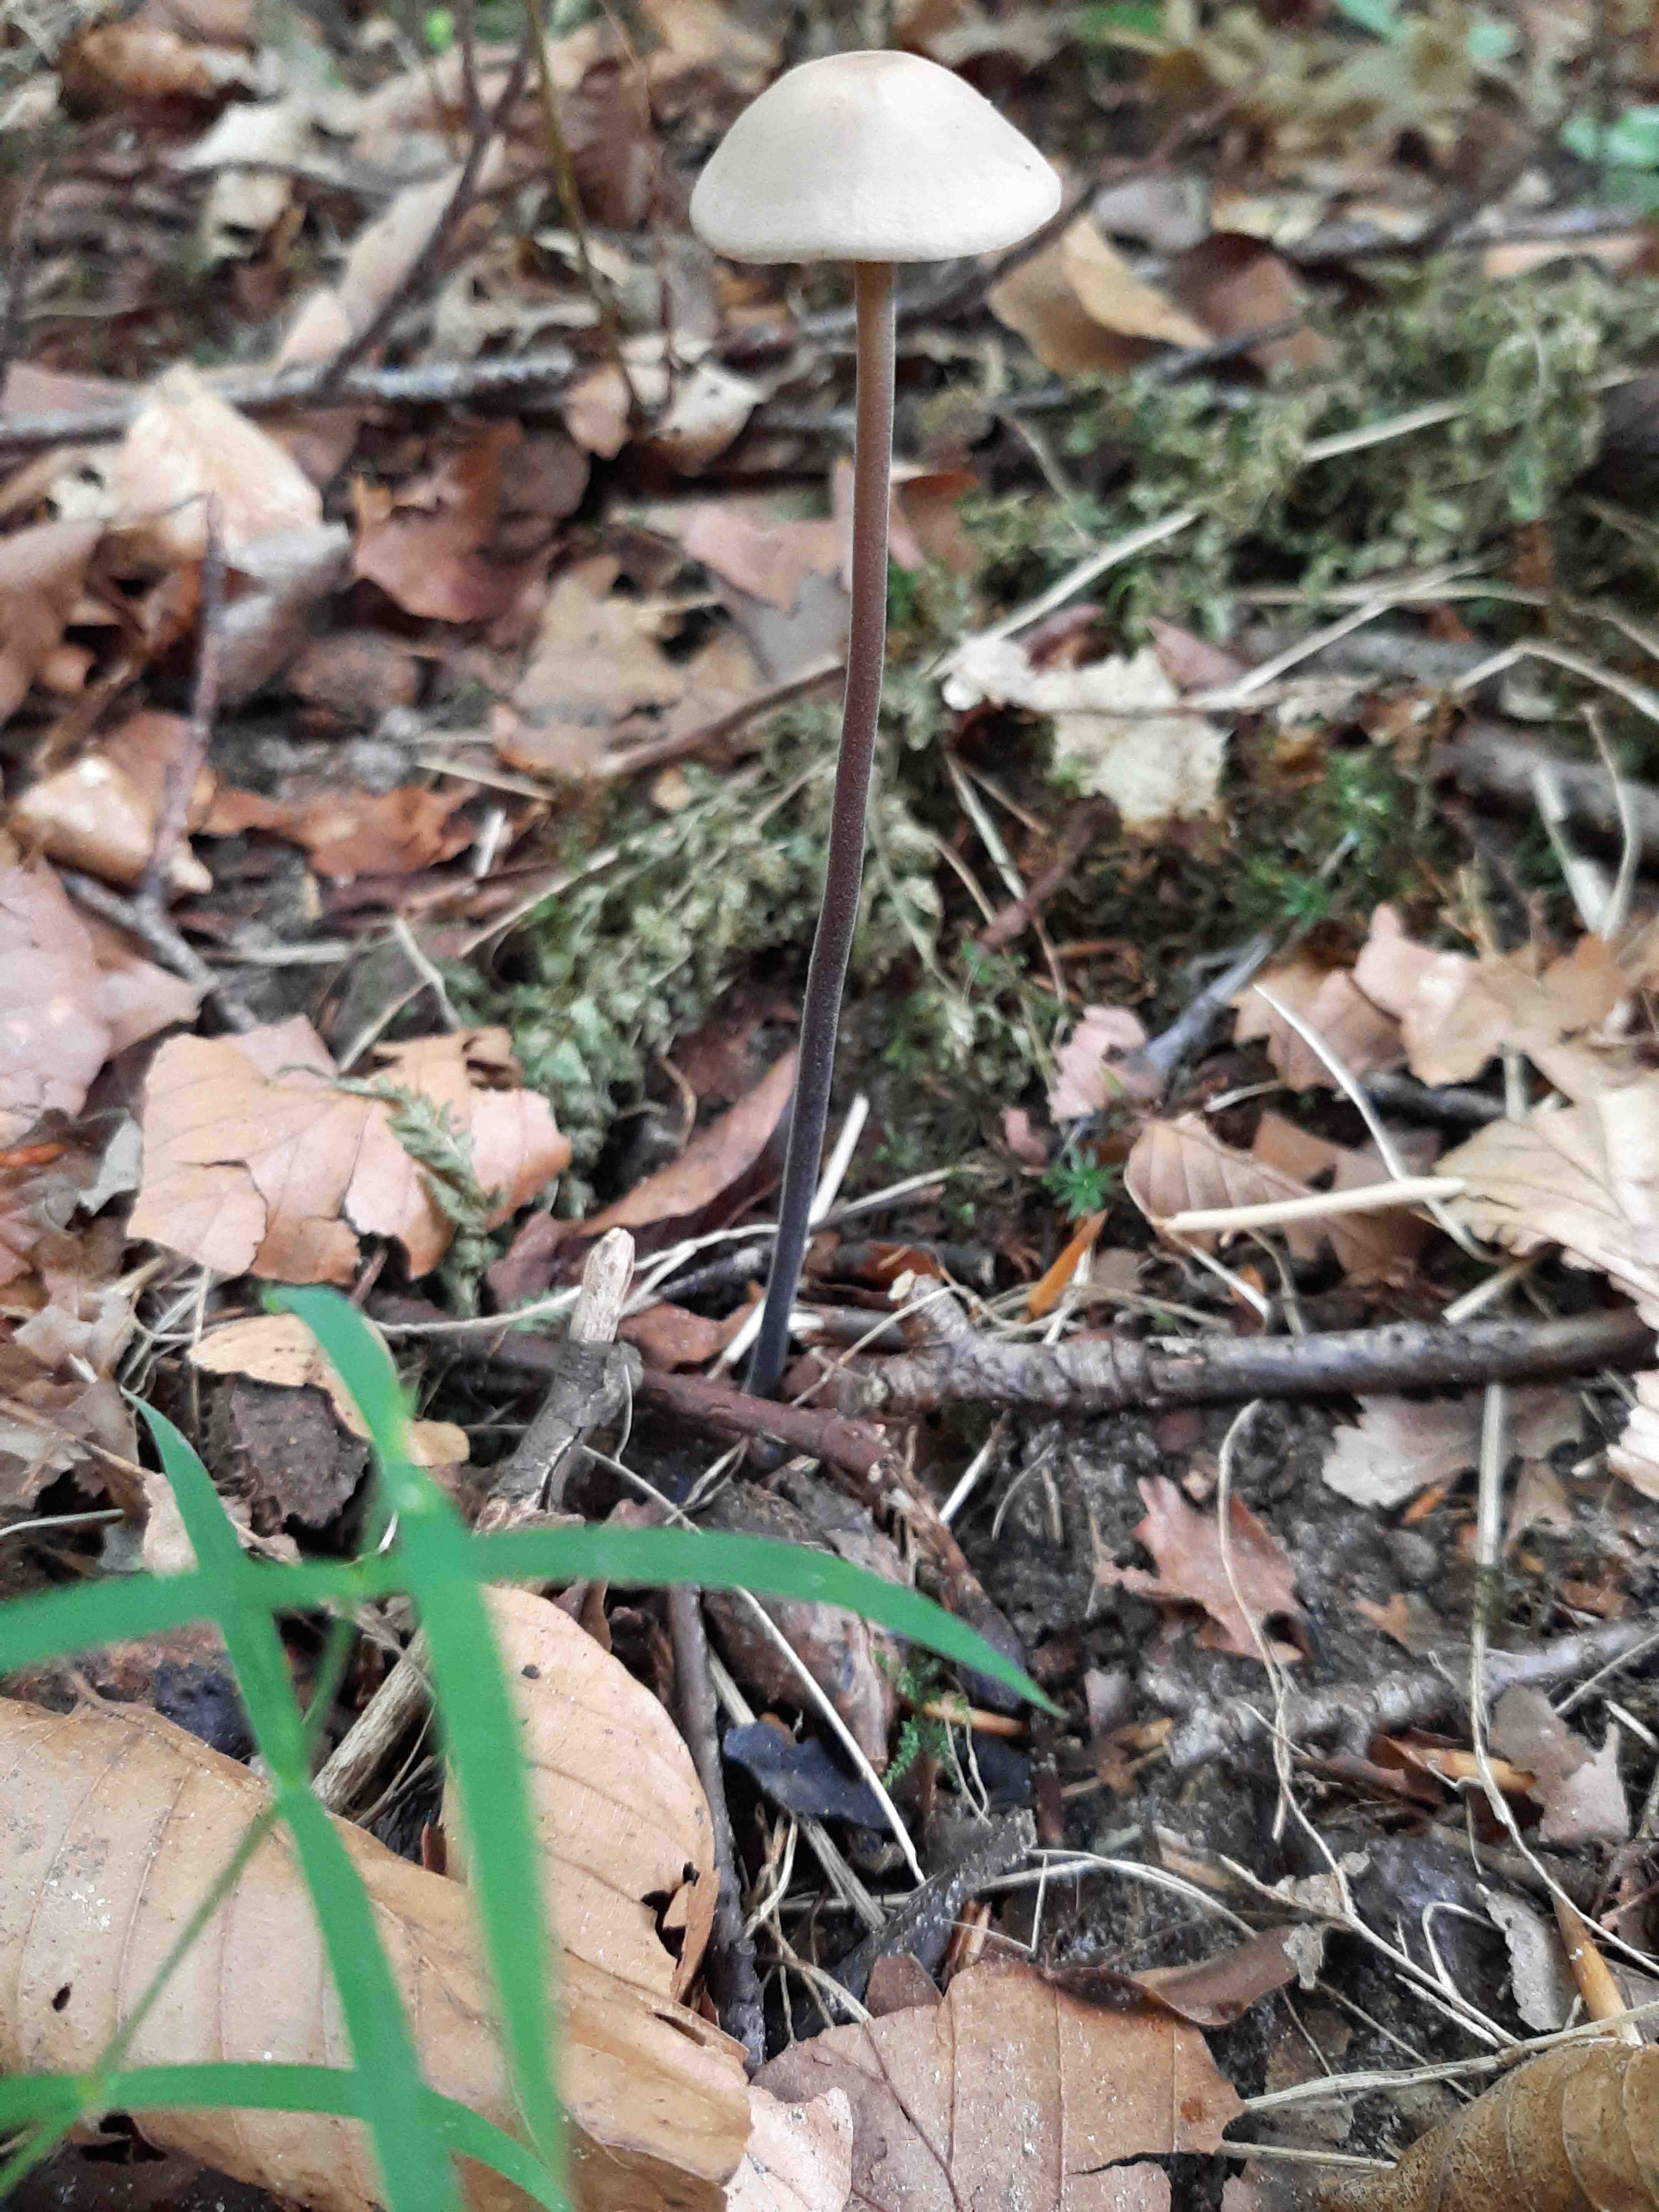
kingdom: Fungi
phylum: Basidiomycota
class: Agaricomycetes
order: Agaricales
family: Omphalotaceae
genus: Mycetinis
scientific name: Mycetinis alliaceus
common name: stor løghat
